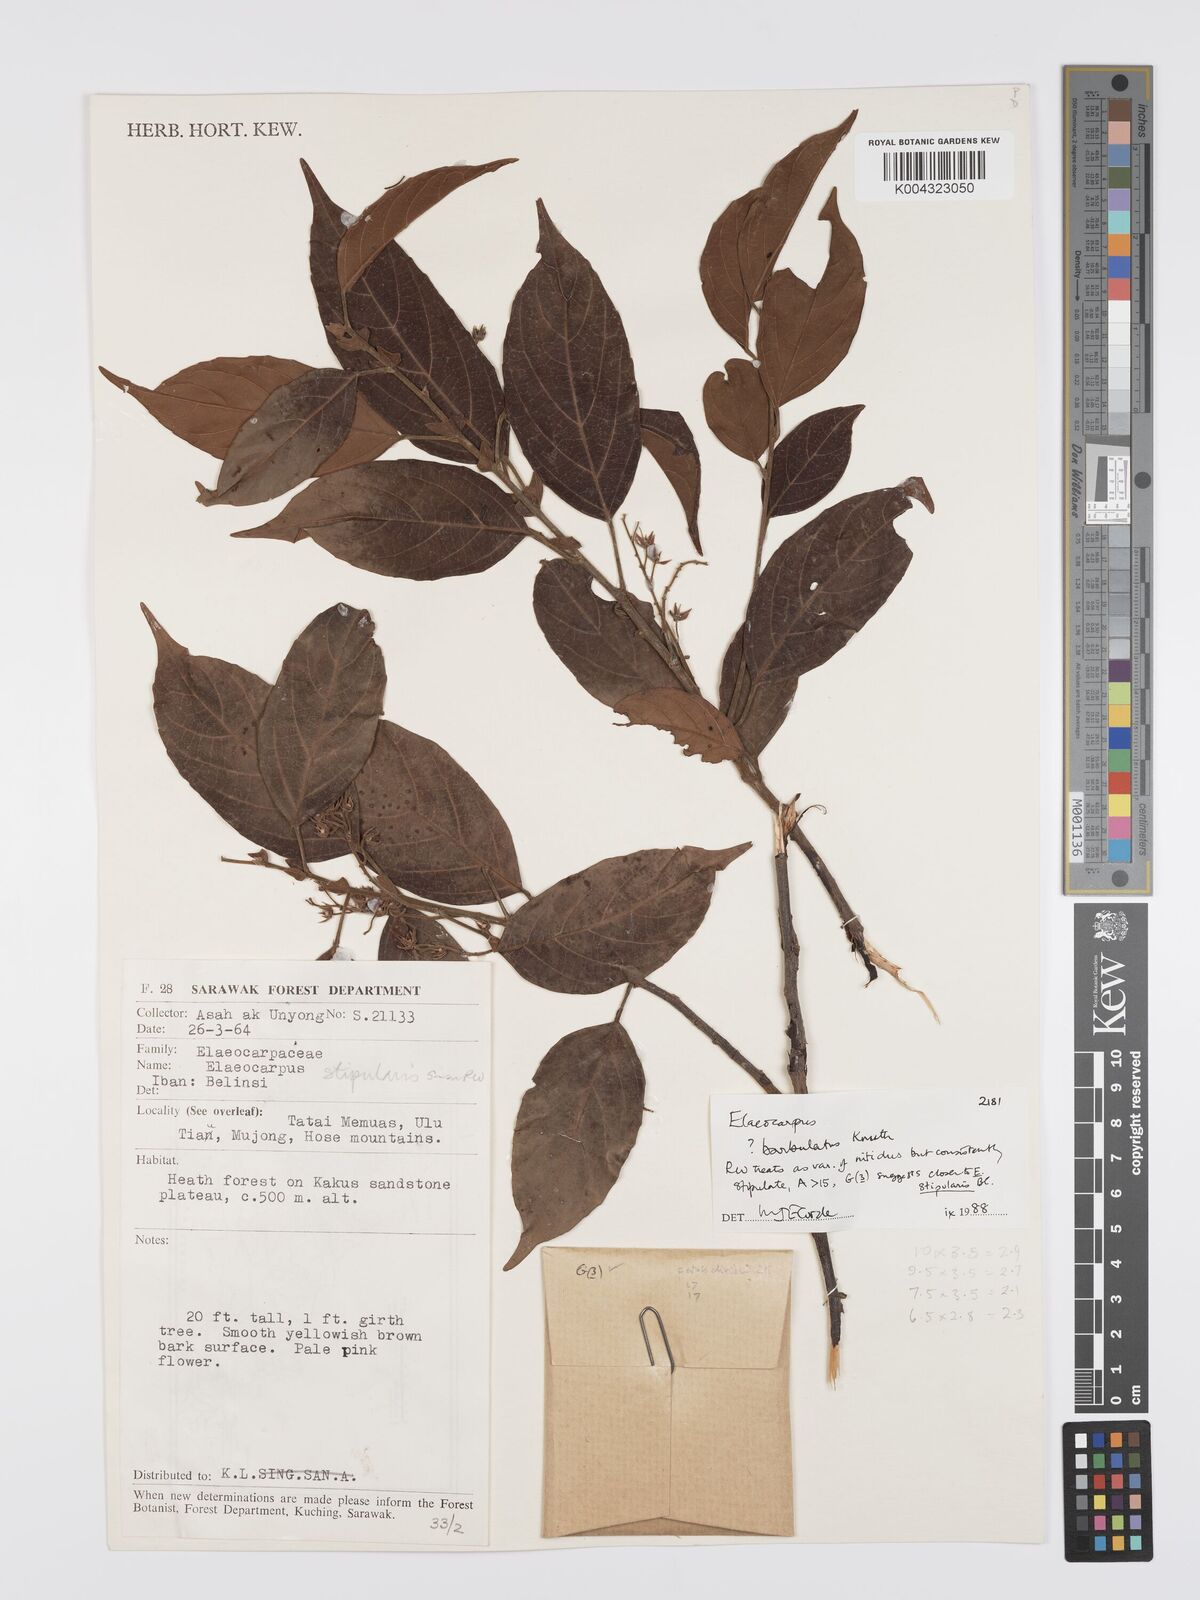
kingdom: Plantae
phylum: Tracheophyta
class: Magnoliopsida
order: Oxalidales
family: Elaeocarpaceae
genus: Elaeocarpus
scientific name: Elaeocarpus barbulatus
